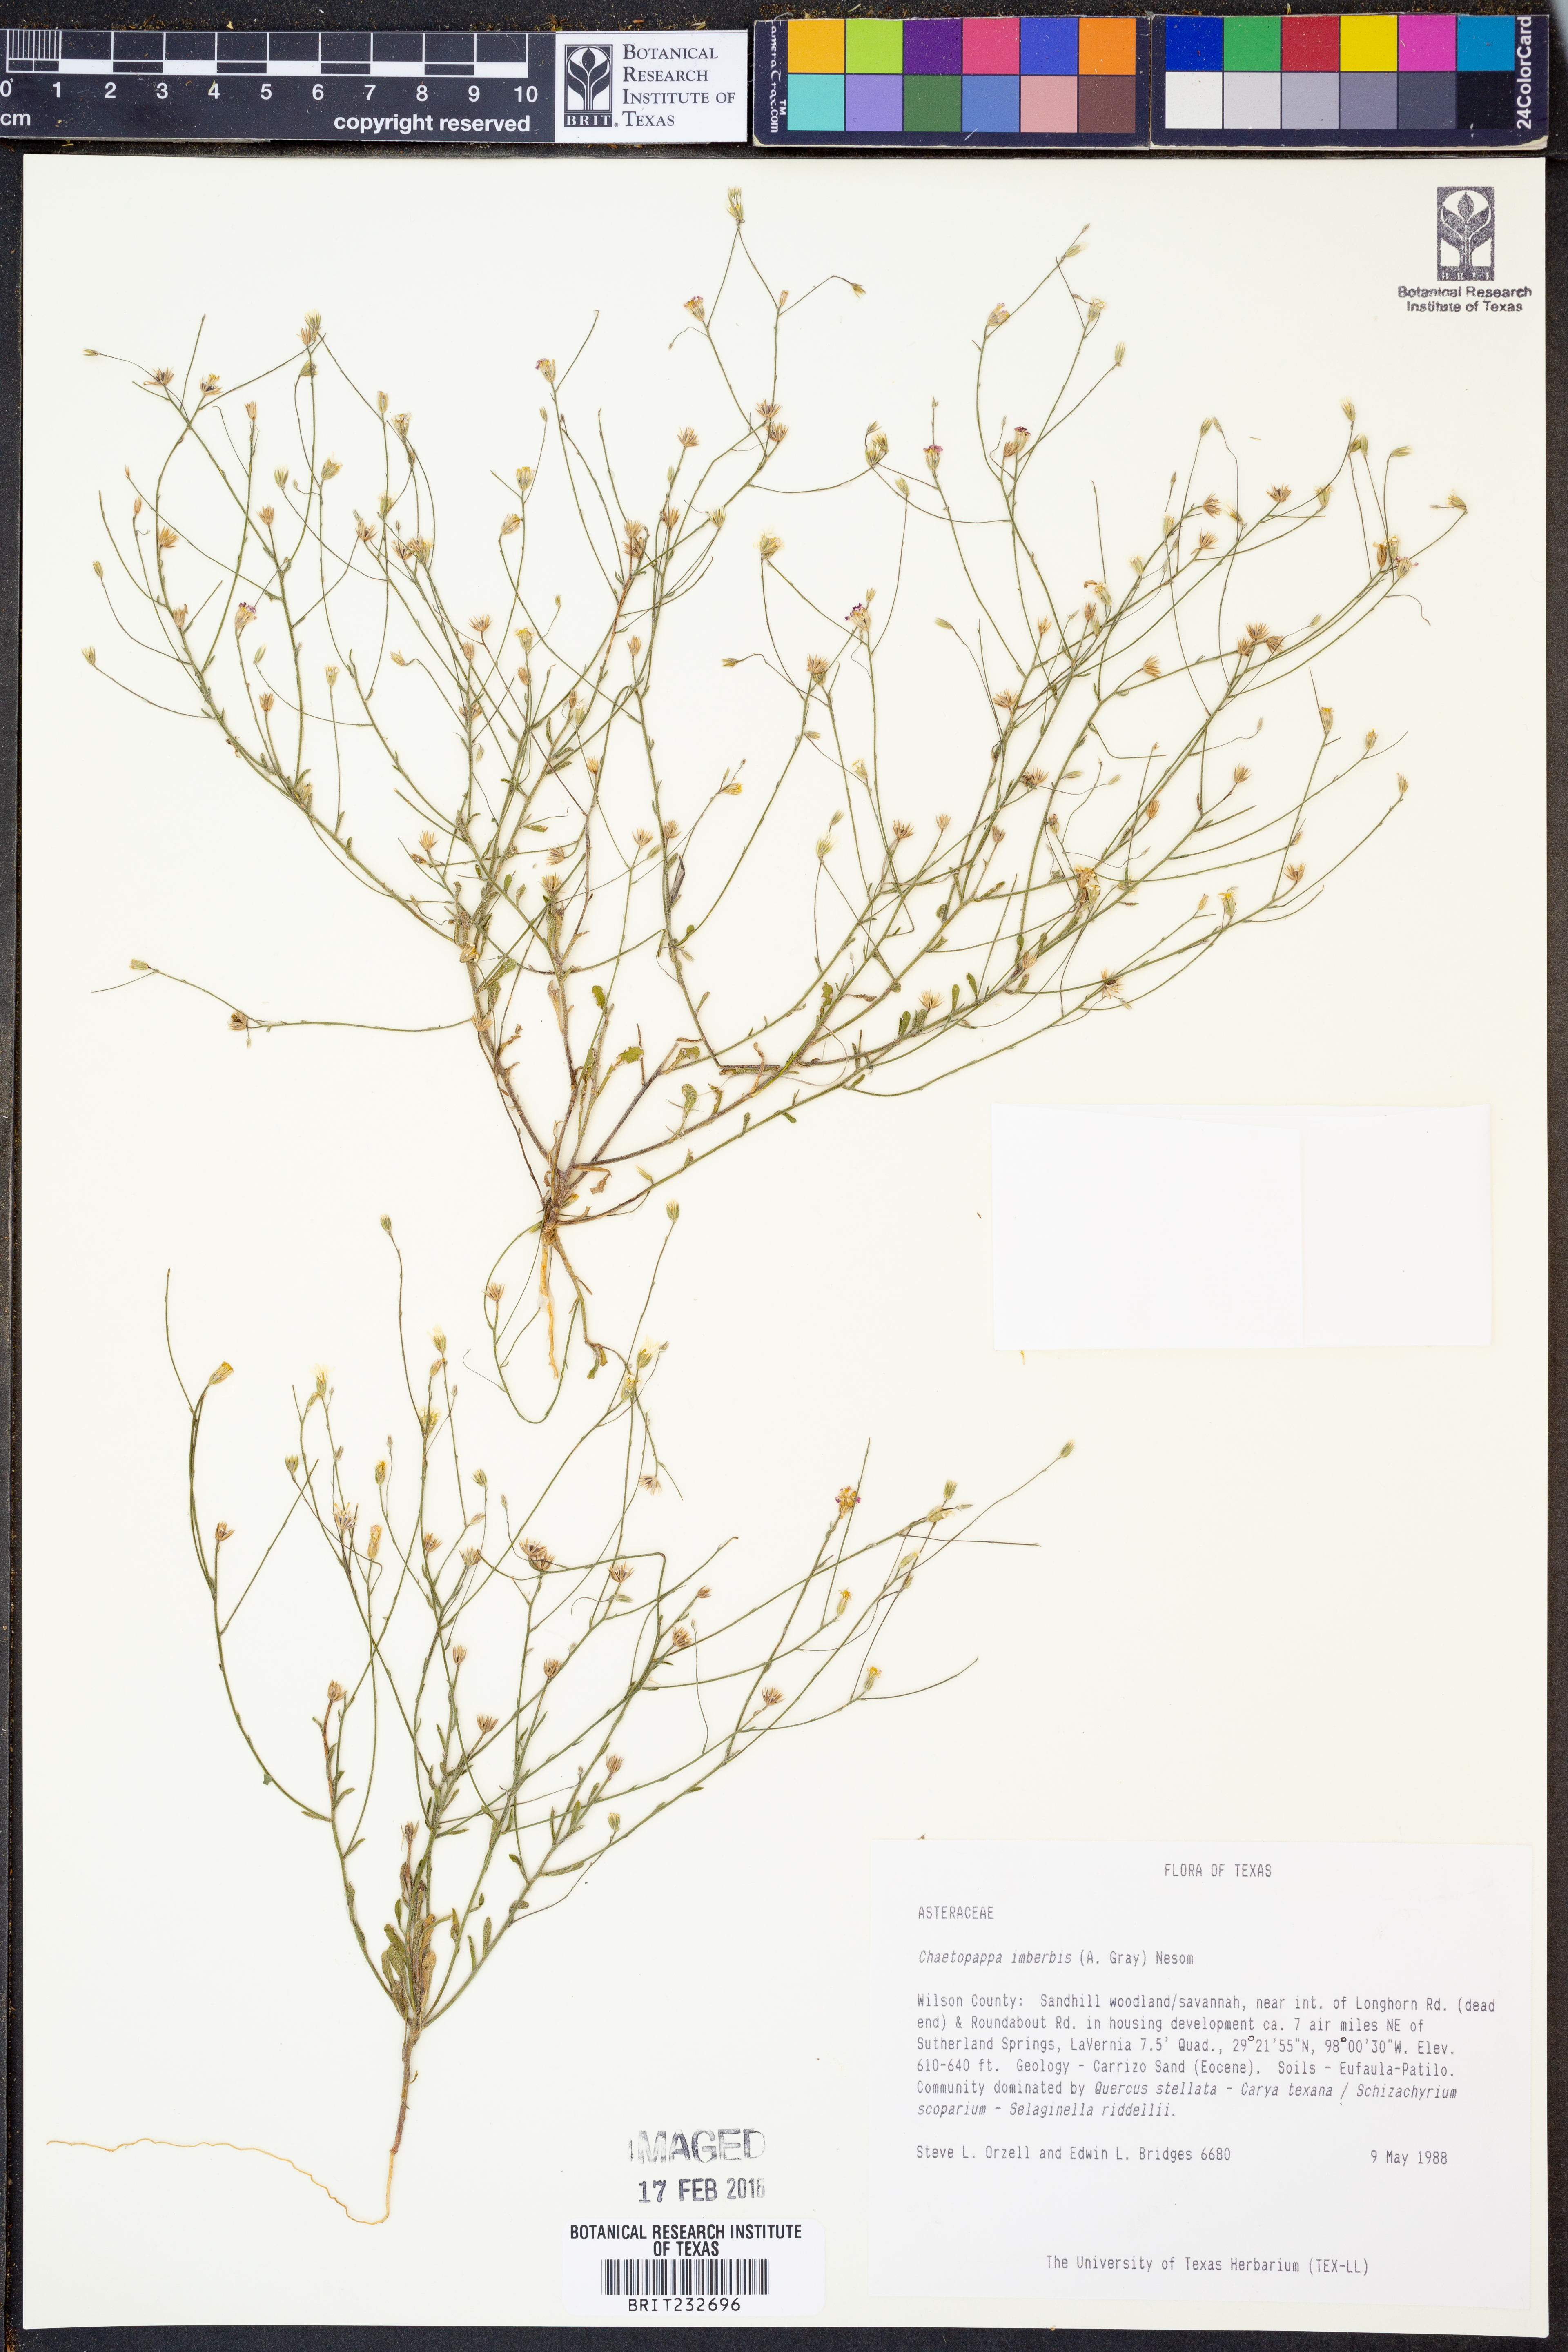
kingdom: Plantae
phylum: Tracheophyta
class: Magnoliopsida
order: Asterales
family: Asteraceae
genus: Chaetopappa
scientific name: Chaetopappa imberbis
